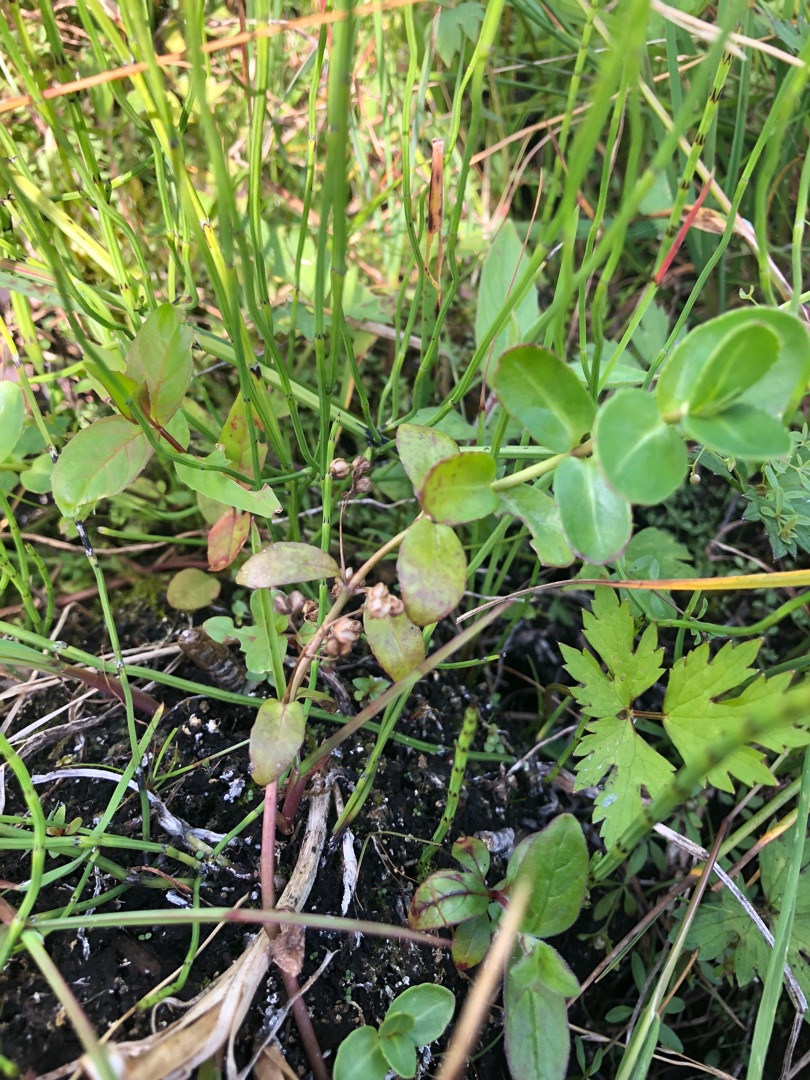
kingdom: Plantae
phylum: Tracheophyta
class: Magnoliopsida
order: Lamiales
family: Plantaginaceae
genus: Veronica
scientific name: Veronica beccabunga
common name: Tykbladet ærenpris
